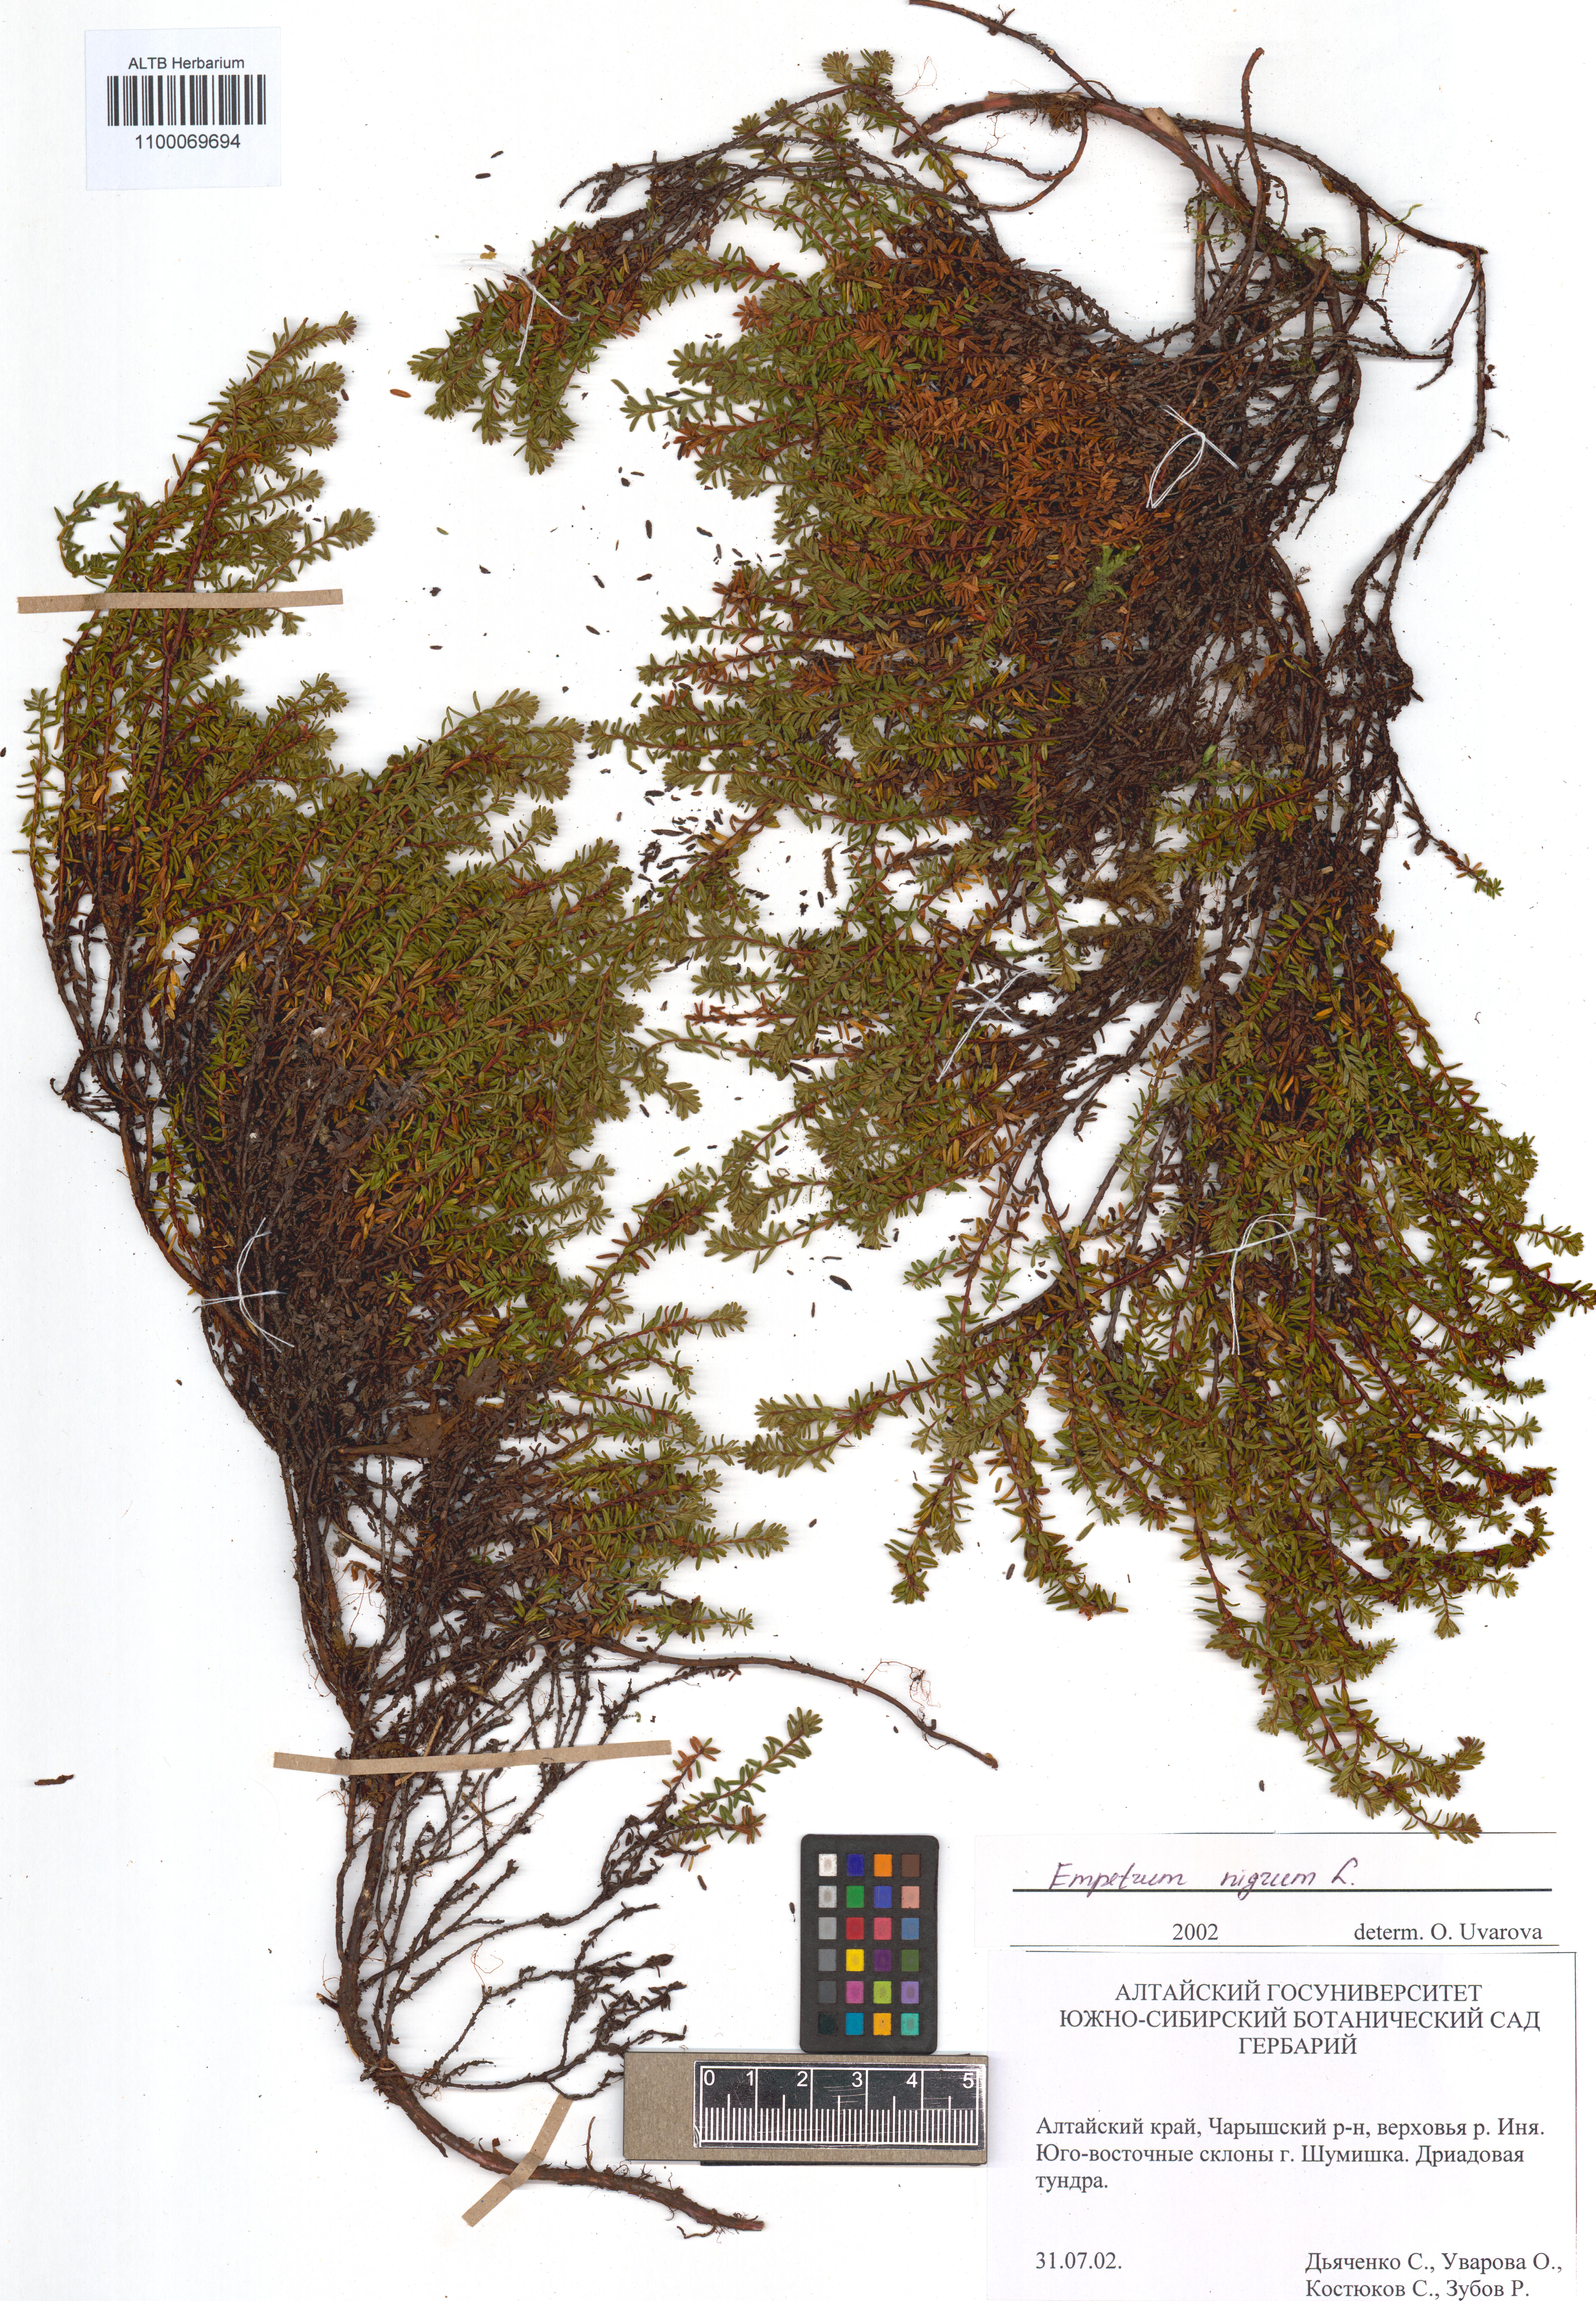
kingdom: Plantae
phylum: Tracheophyta
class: Magnoliopsida
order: Ericales
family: Ericaceae
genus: Empetrum
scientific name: Empetrum nigrum
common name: Black crowberry
